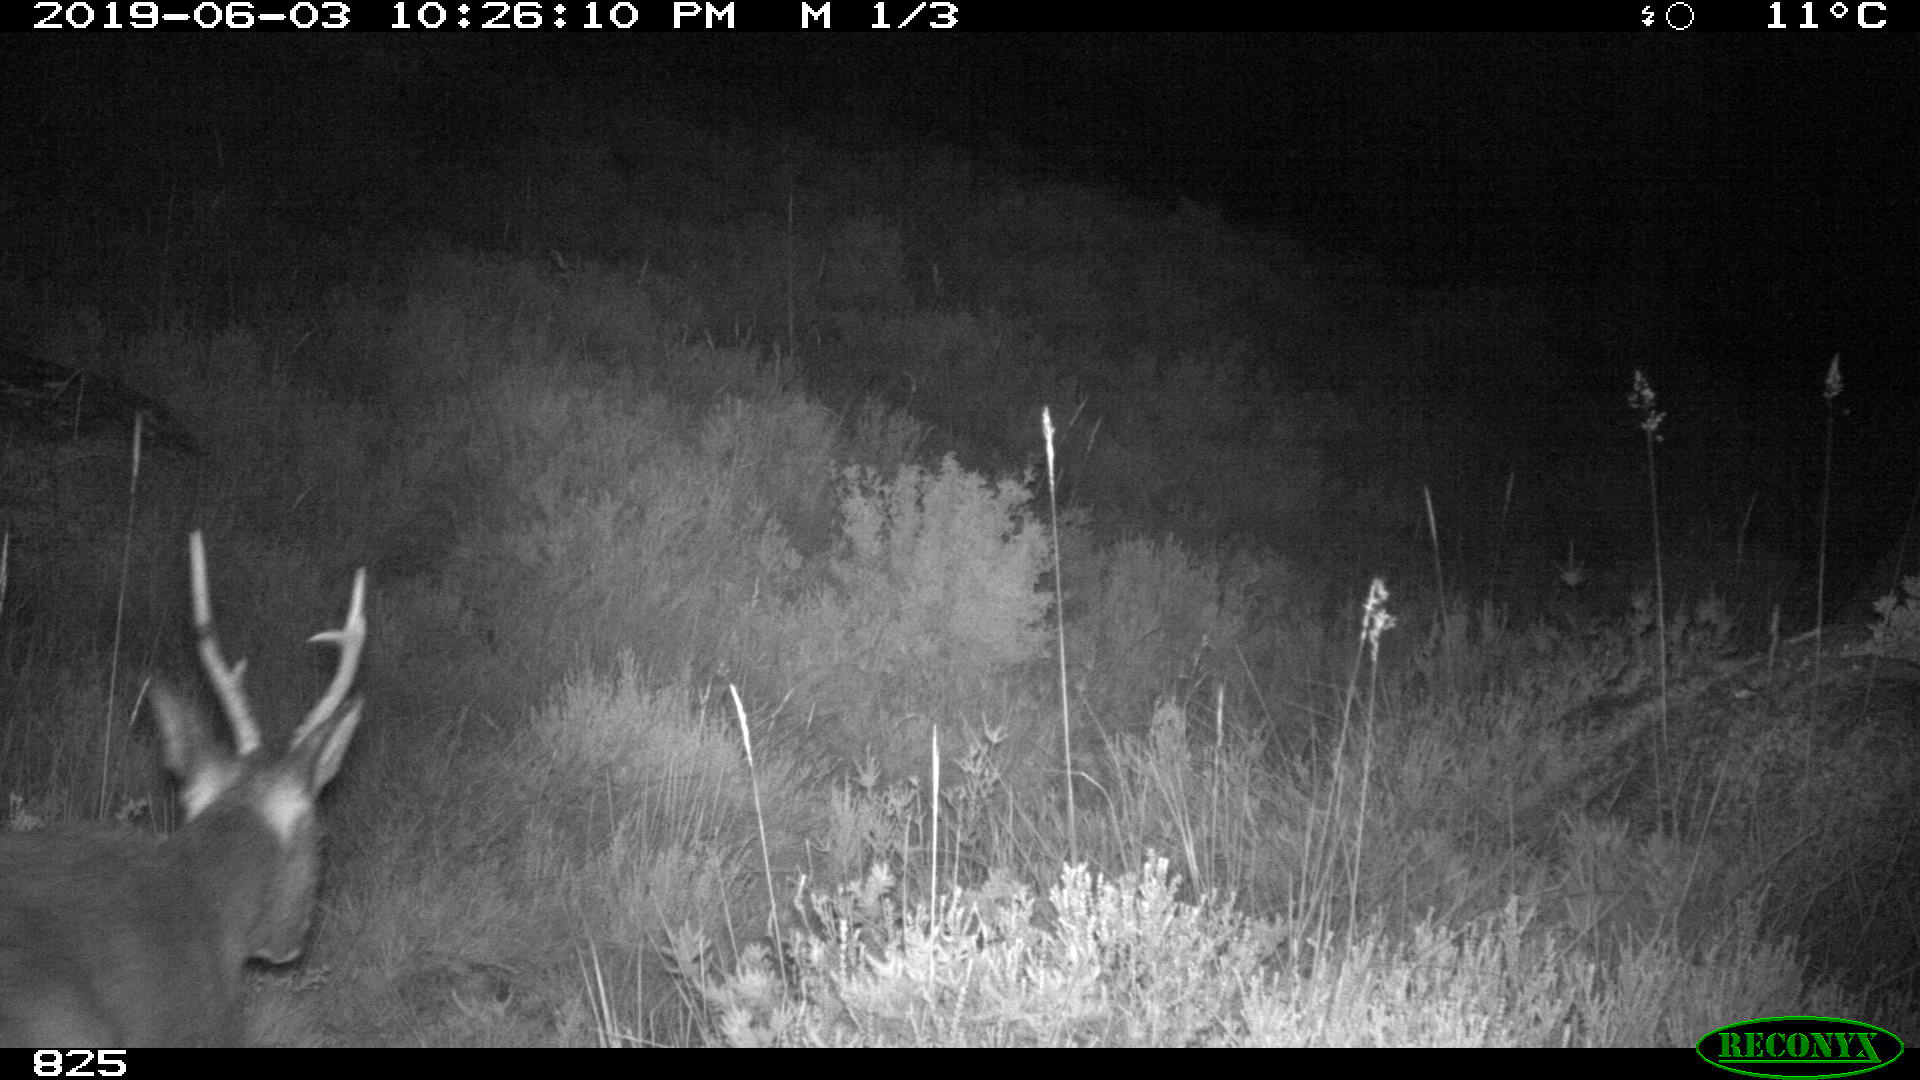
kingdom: Animalia
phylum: Chordata
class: Mammalia
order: Artiodactyla
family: Cervidae
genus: Capreolus
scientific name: Capreolus capreolus
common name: Western roe deer
